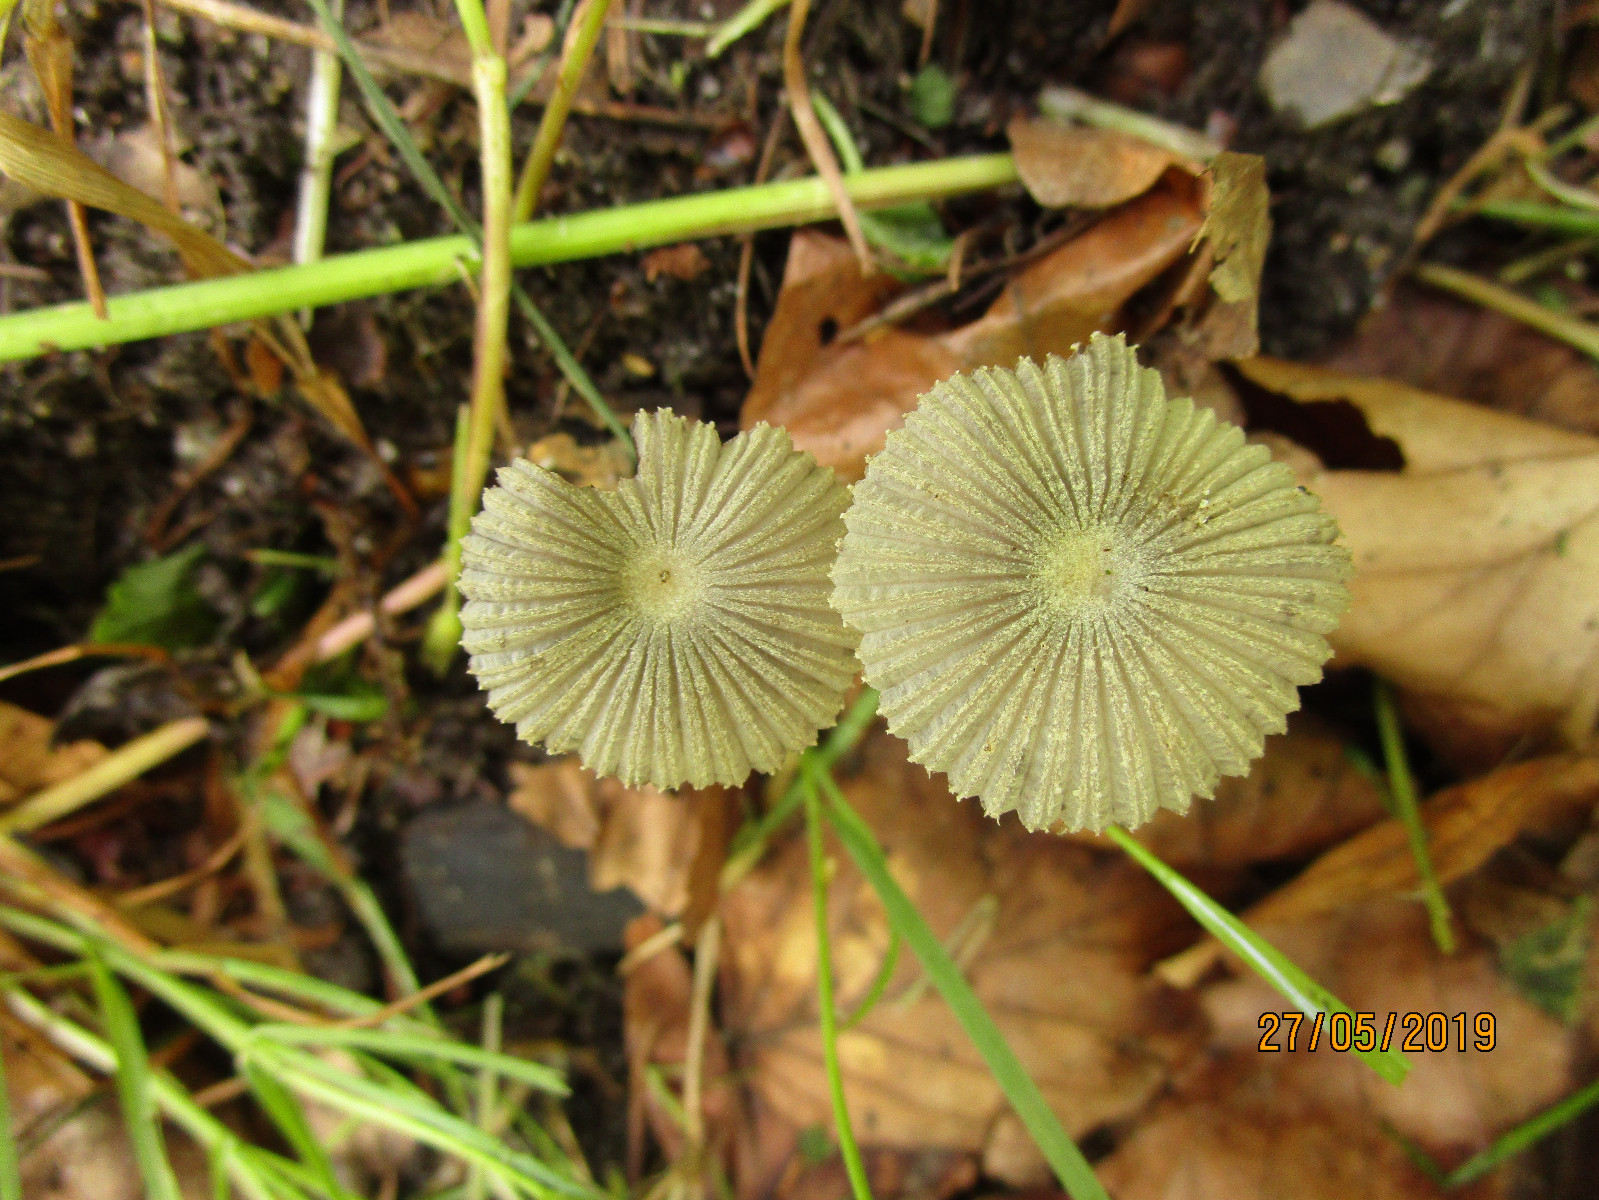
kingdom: Fungi
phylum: Basidiomycota
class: Agaricomycetes
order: Agaricales
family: Psathyrellaceae
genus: Parasola
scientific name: Parasola
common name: hjulhat
